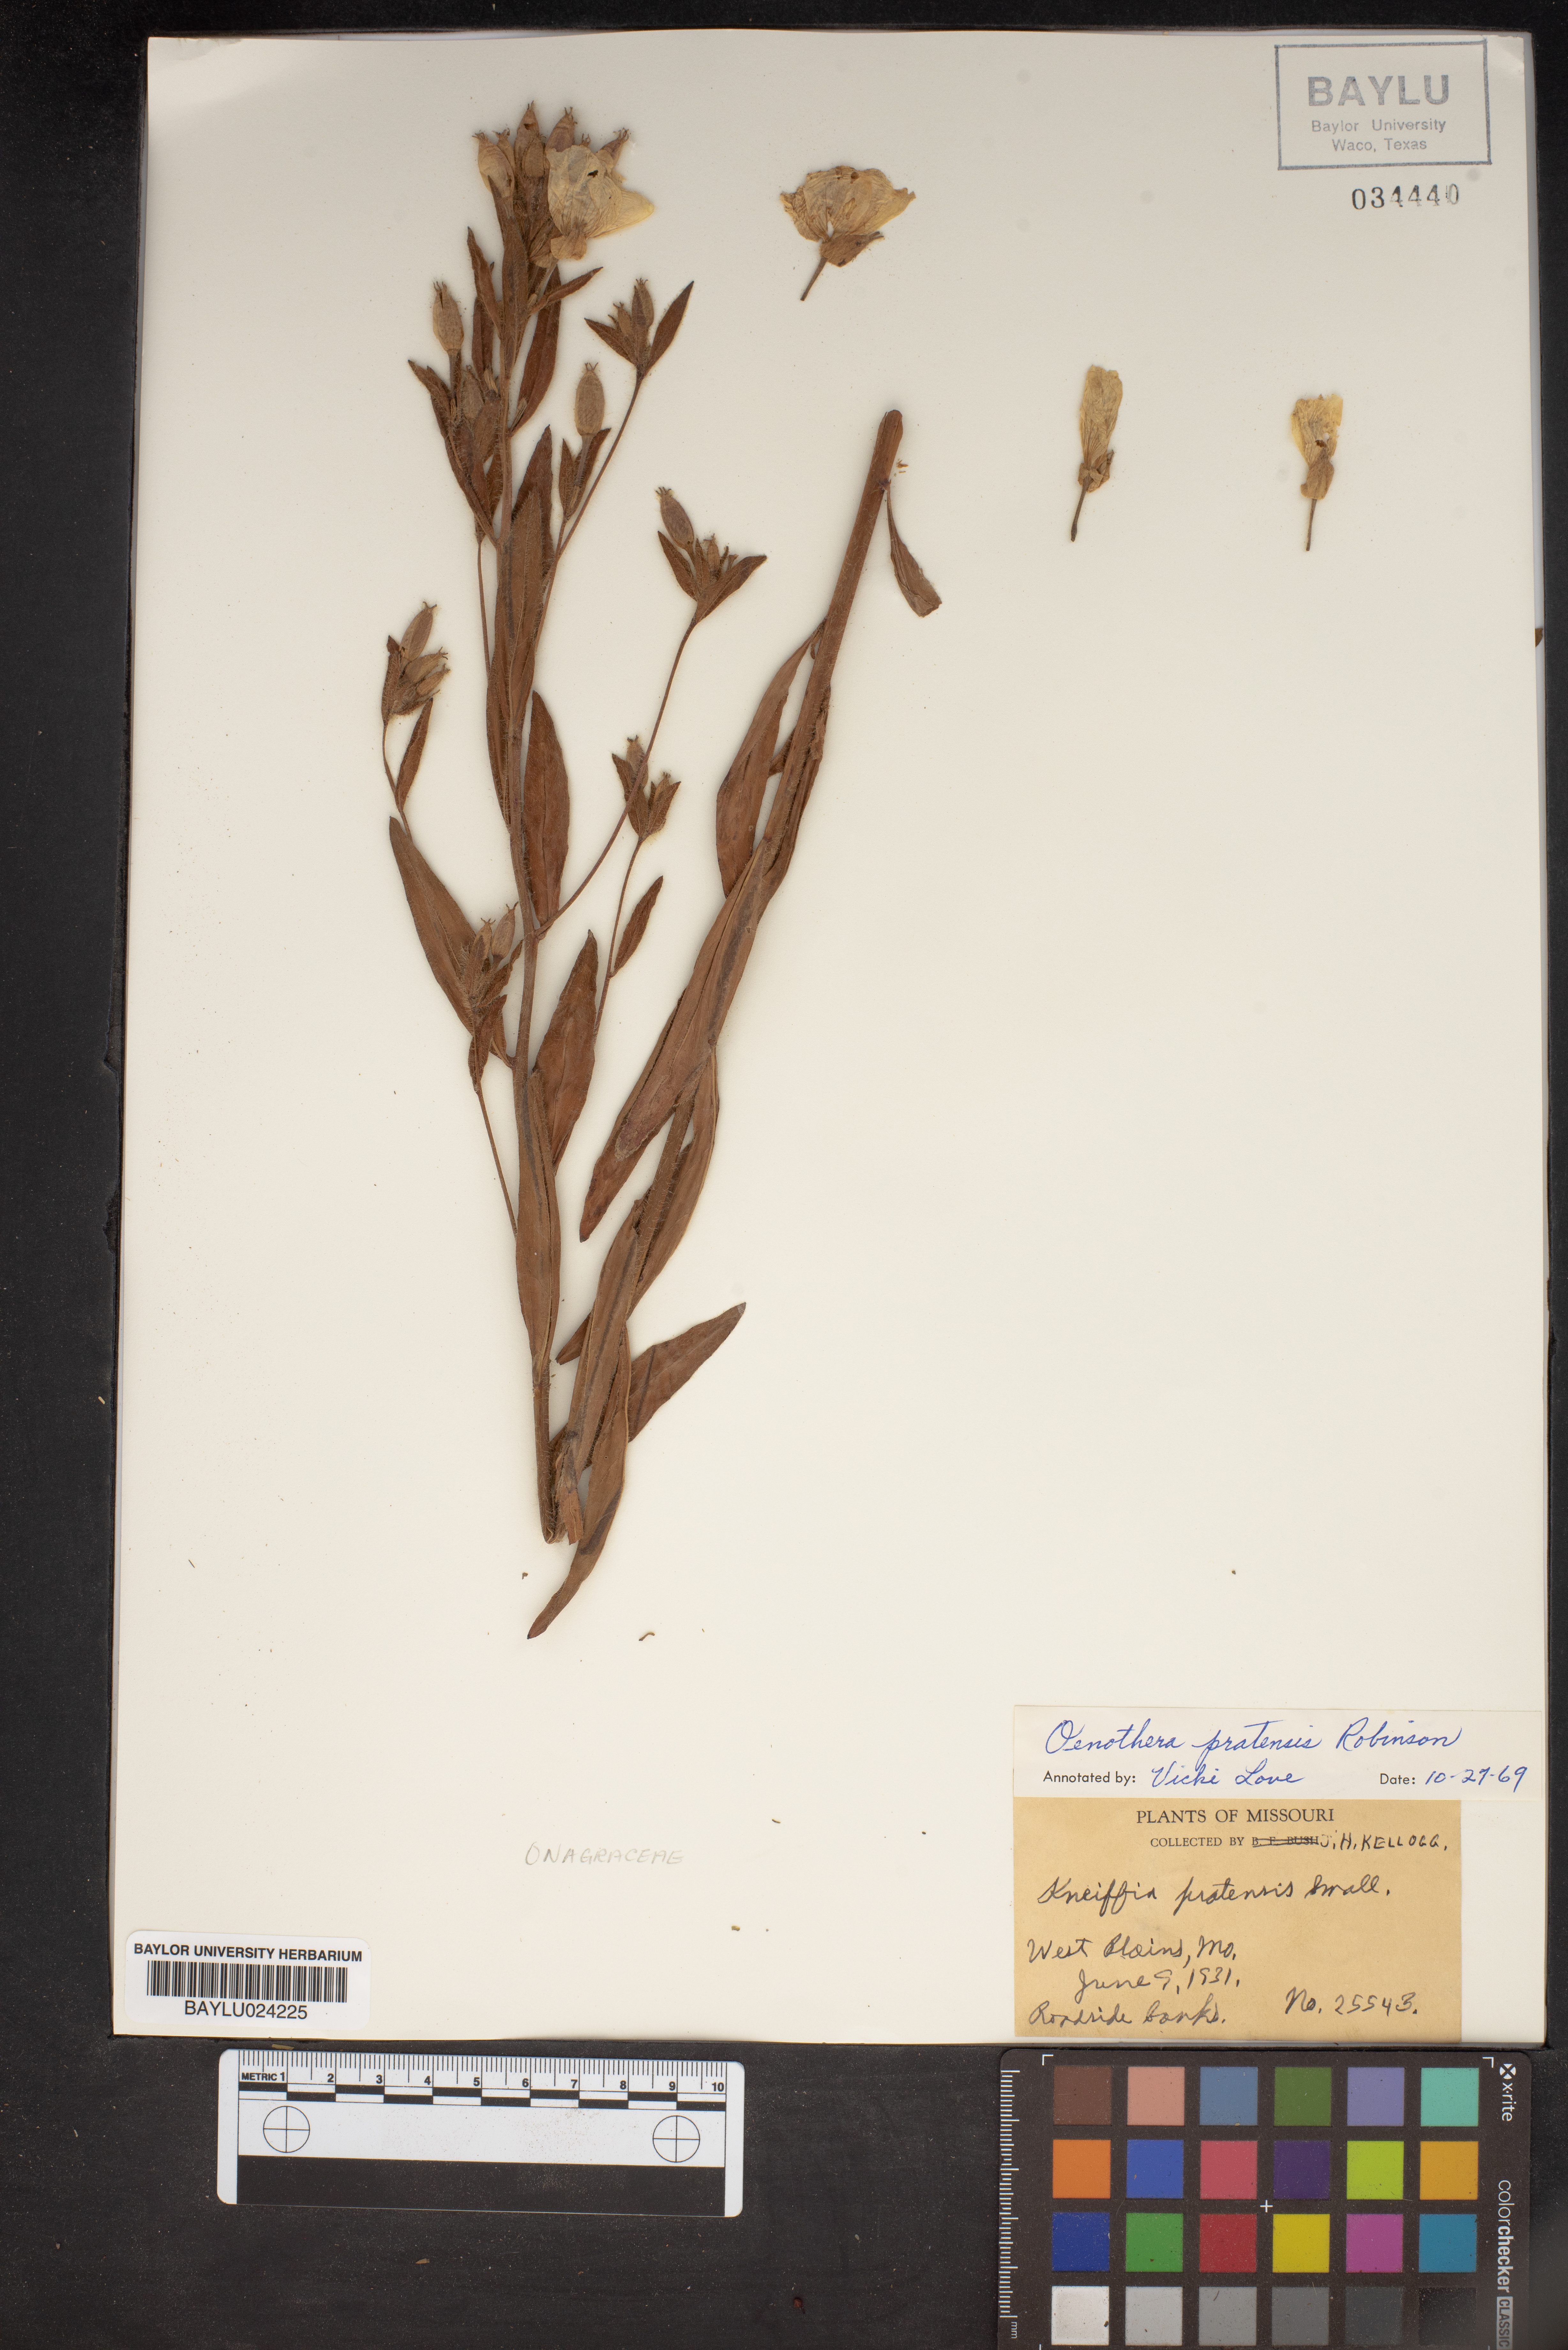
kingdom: Plantae
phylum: Tracheophyta
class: Magnoliopsida
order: Myrtales
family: Onagraceae
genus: Oenothera
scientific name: Oenothera pilosella
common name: Finely-pilose evening-primrose
